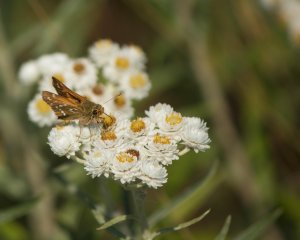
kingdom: Animalia
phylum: Arthropoda
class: Insecta
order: Lepidoptera
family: Hesperiidae
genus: Hesperia
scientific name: Hesperia comma
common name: Common Branded Skipper
